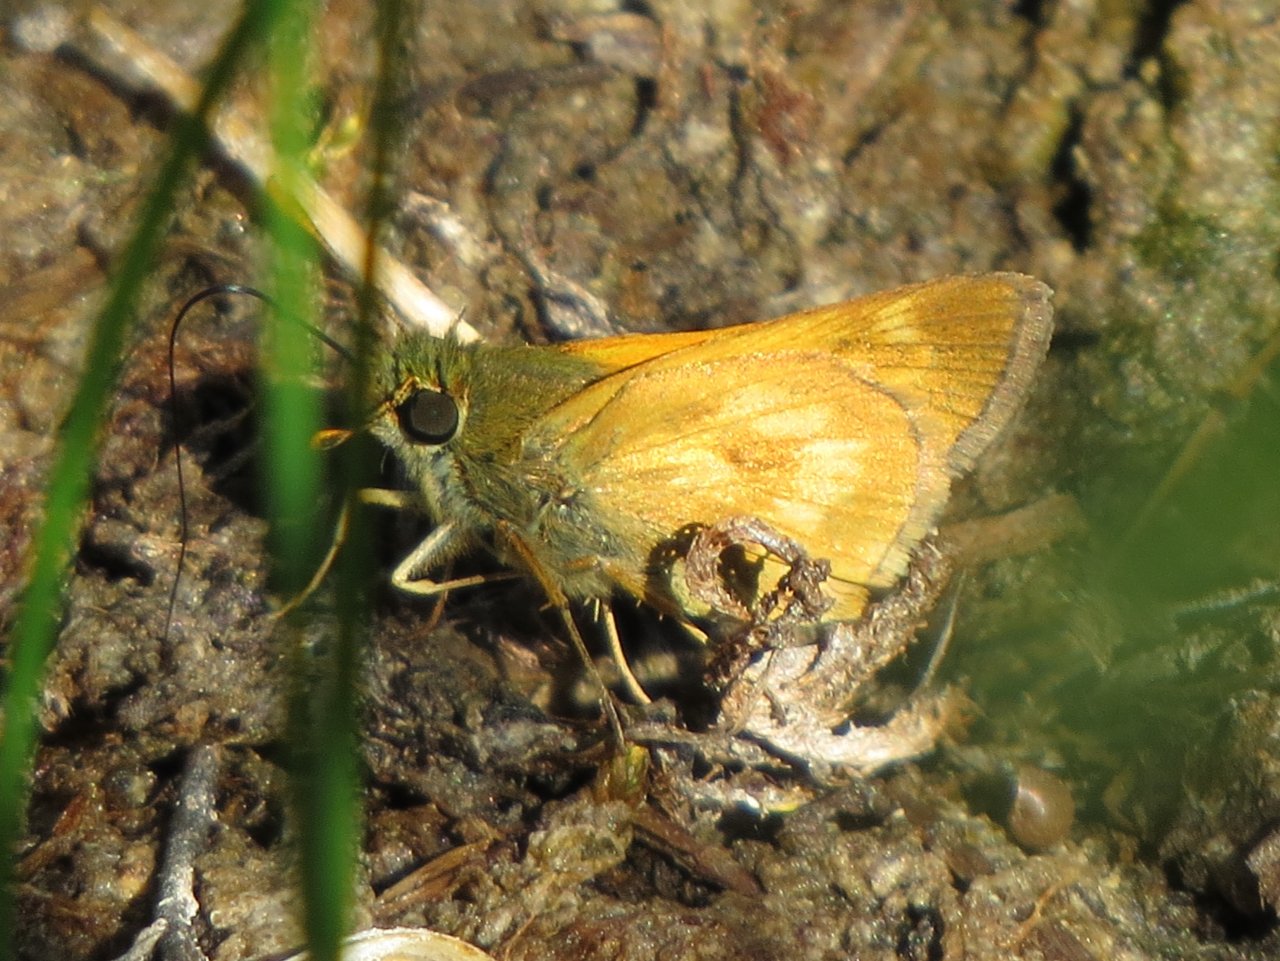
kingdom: Animalia
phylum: Arthropoda
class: Insecta
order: Lepidoptera
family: Hesperiidae
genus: Polites
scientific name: Polites
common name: Long Dash Skipper
